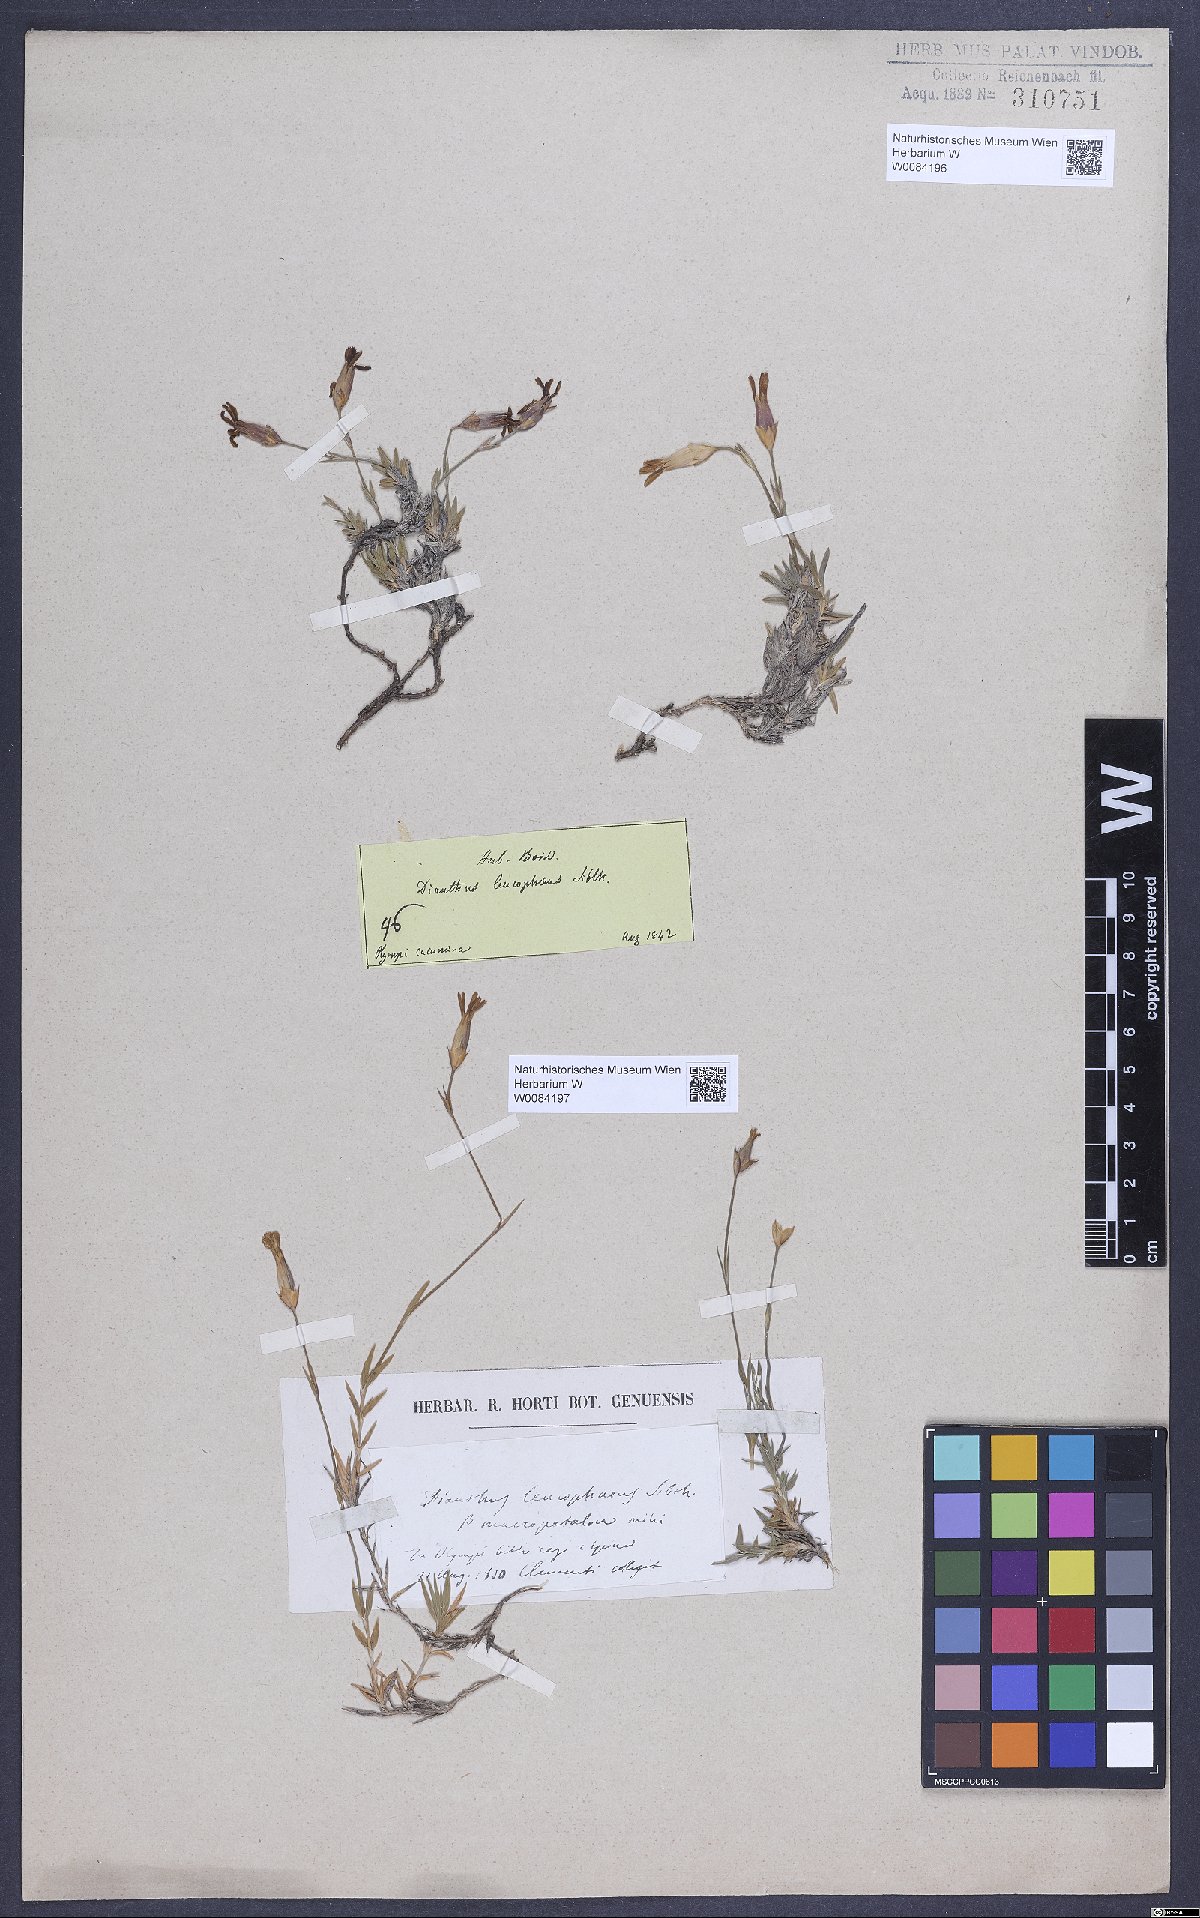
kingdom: Plantae
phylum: Tracheophyta
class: Magnoliopsida
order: Caryophyllales
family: Caryophyllaceae
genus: Dianthus
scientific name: Dianthus leucophaeus
